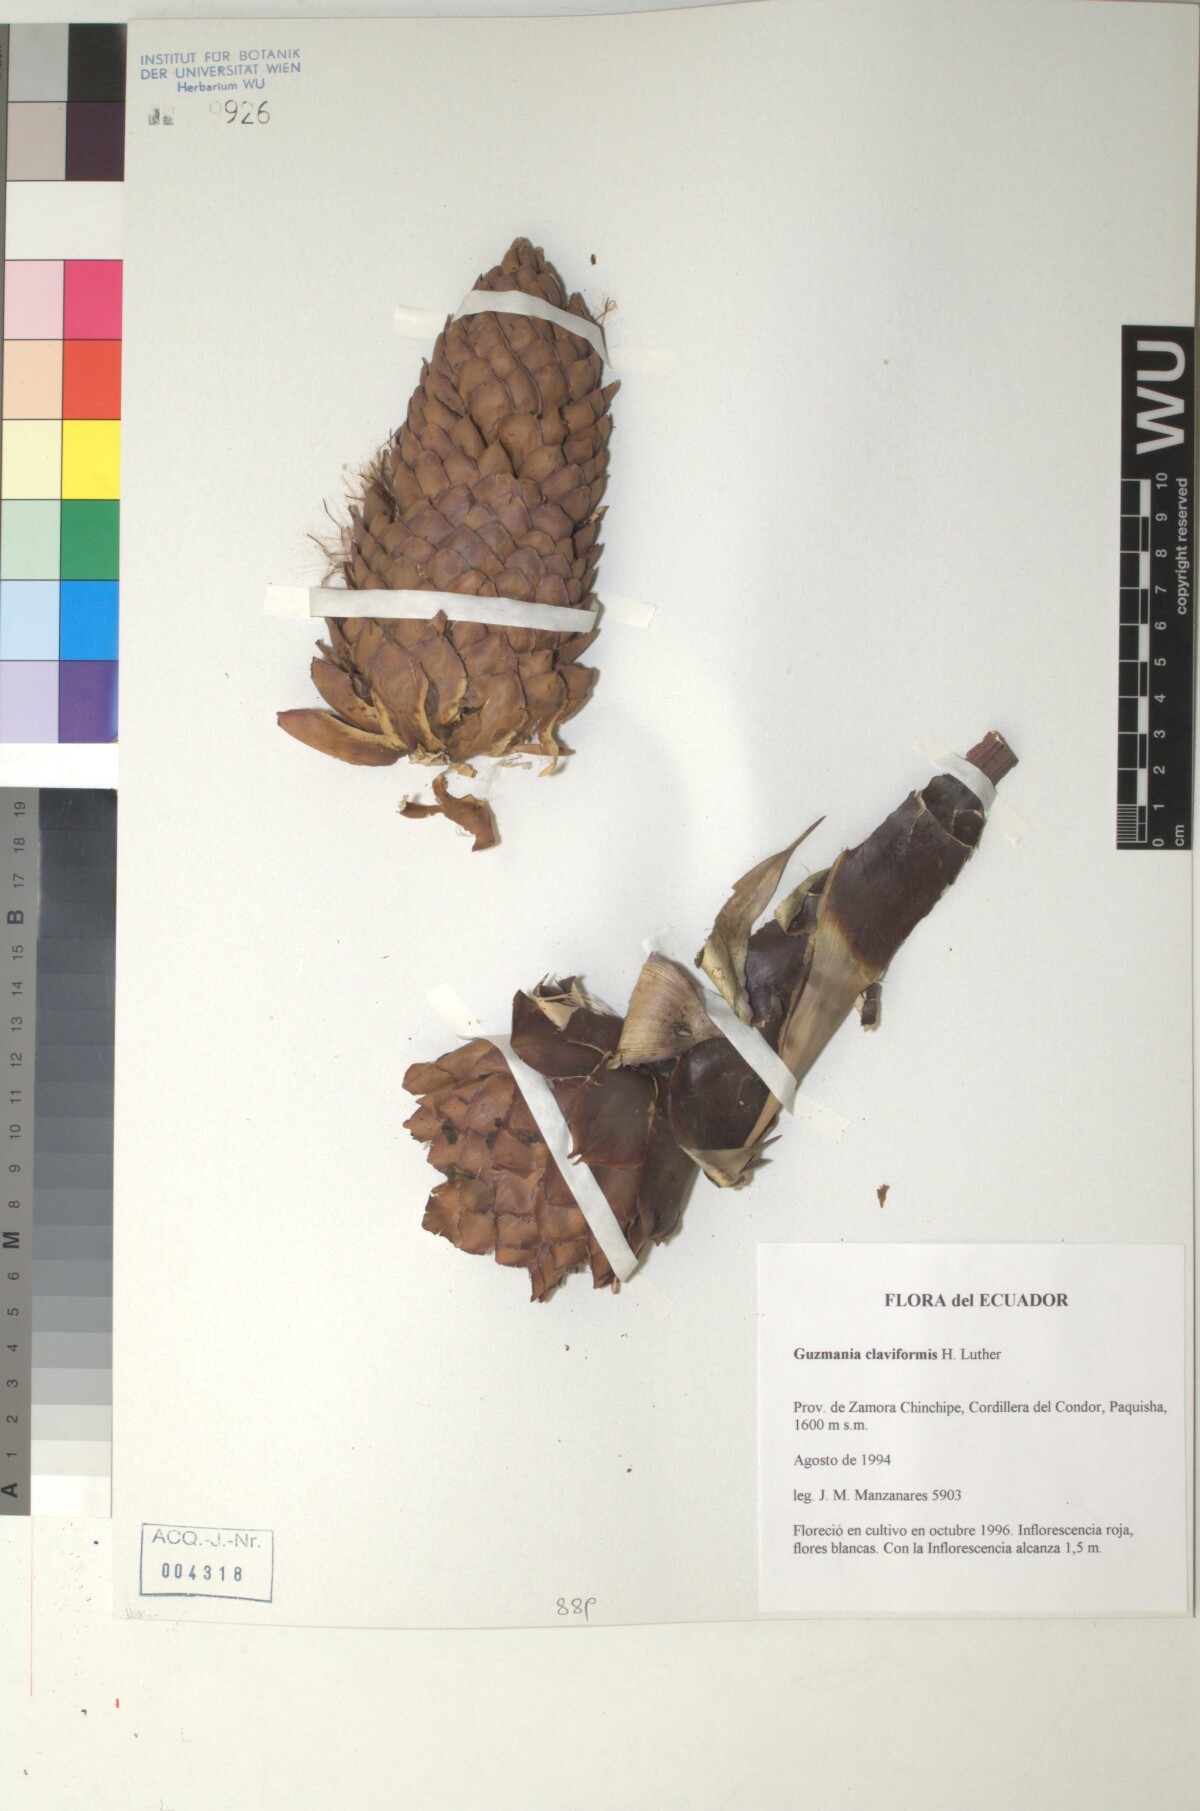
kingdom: Plantae
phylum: Tracheophyta
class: Liliopsida
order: Poales
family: Bromeliaceae
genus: Guzmania
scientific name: Guzmania claviformis
